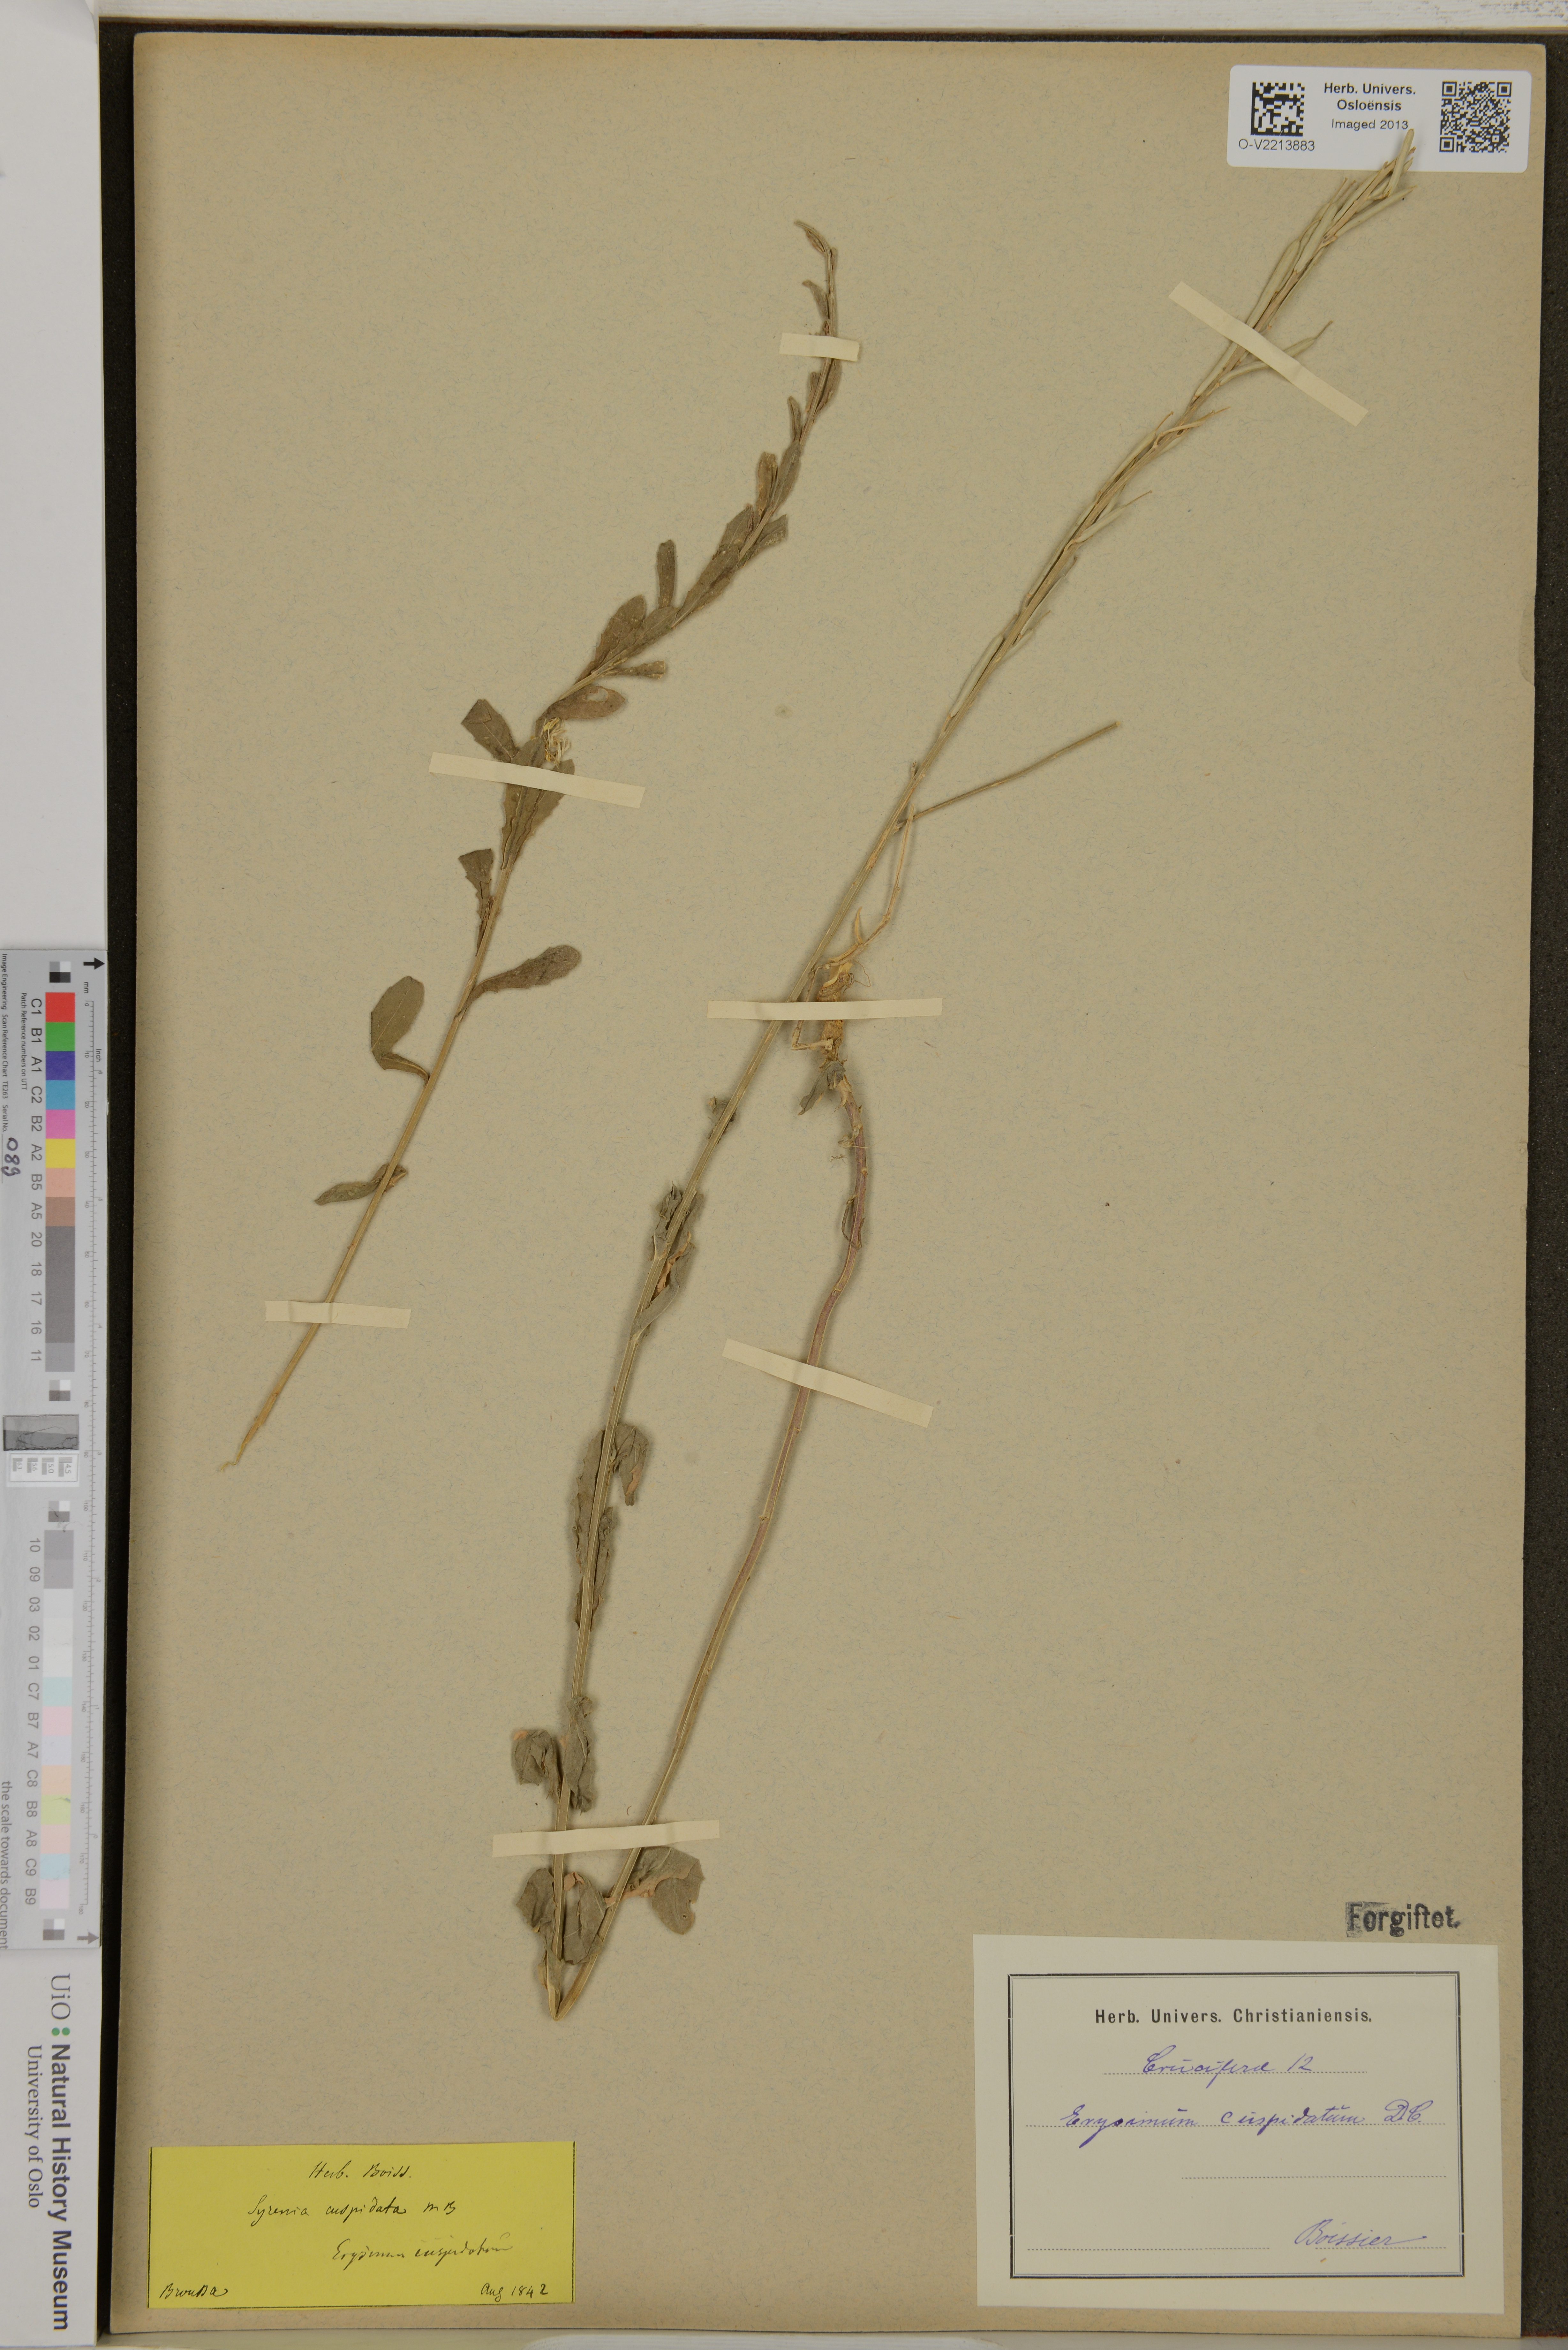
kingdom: Plantae
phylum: Tracheophyta
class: Magnoliopsida
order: Brassicales
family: Brassicaceae
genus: Erysimum
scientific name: Erysimum cuspidatum
